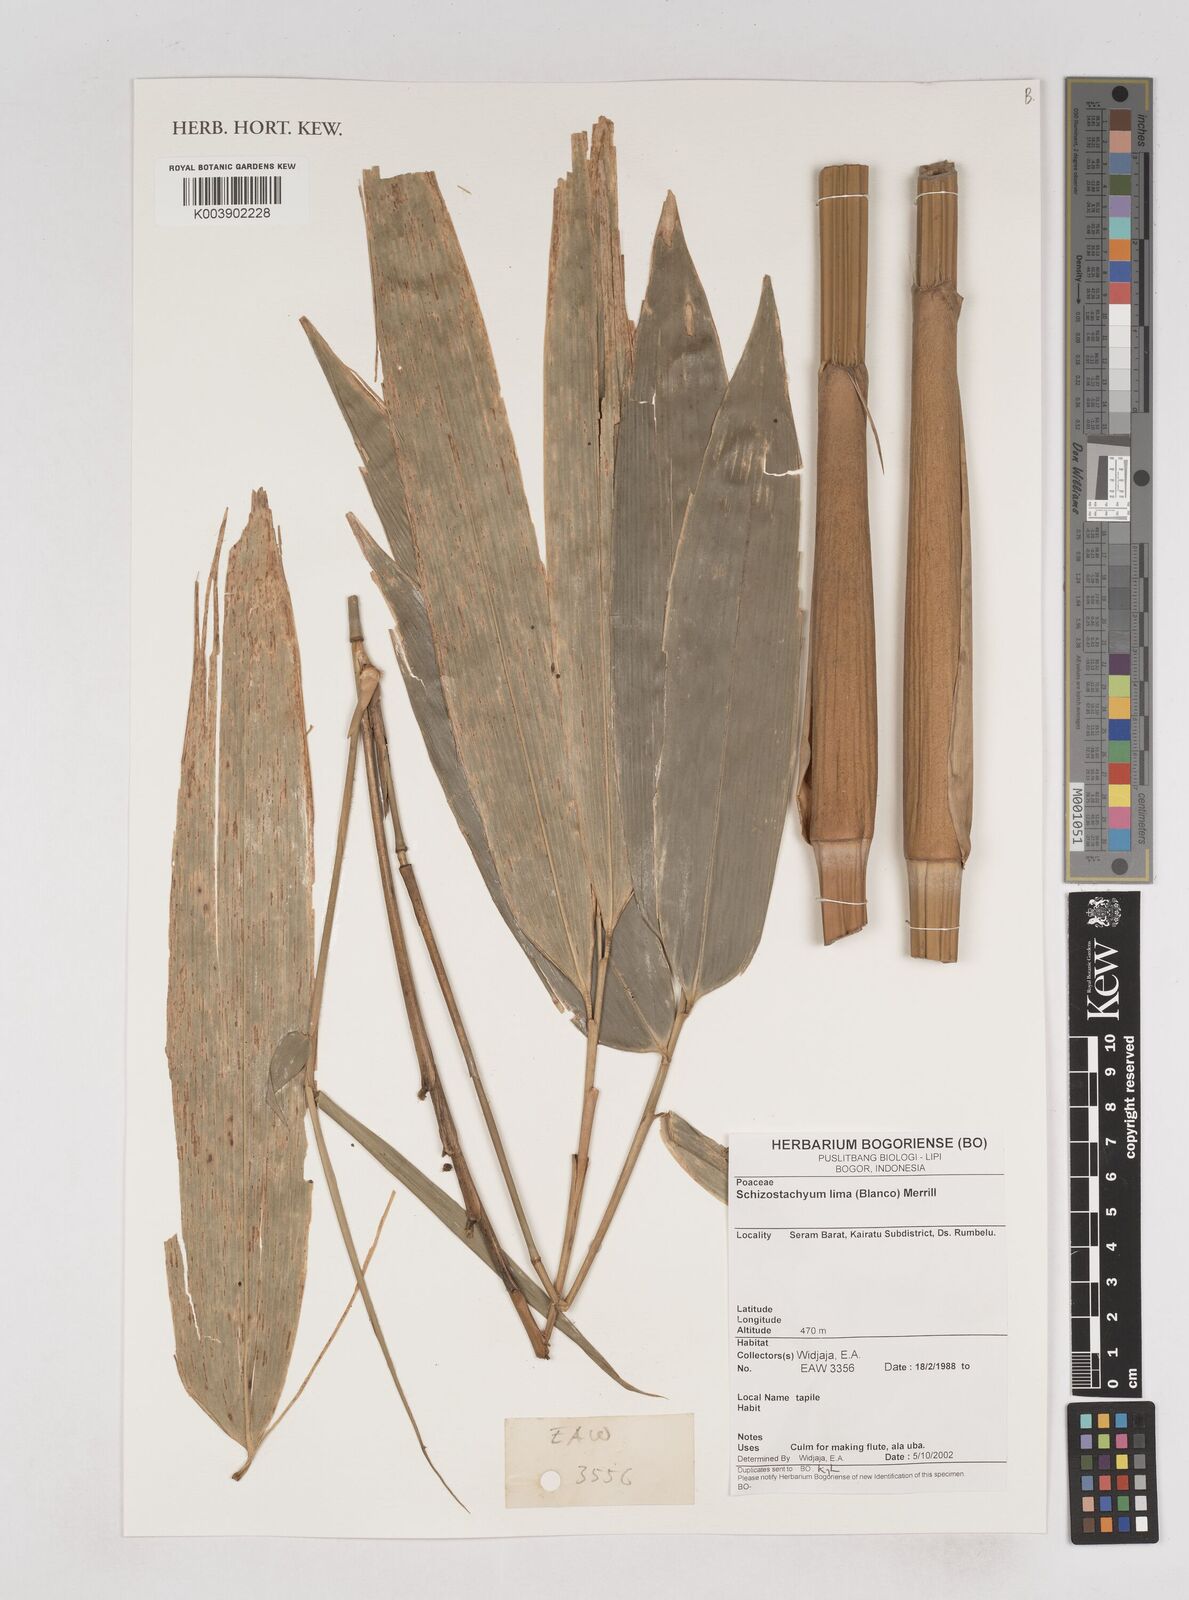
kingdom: Plantae
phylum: Tracheophyta
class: Liliopsida
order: Poales
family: Poaceae
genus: Schizostachyum
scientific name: Schizostachyum lima
